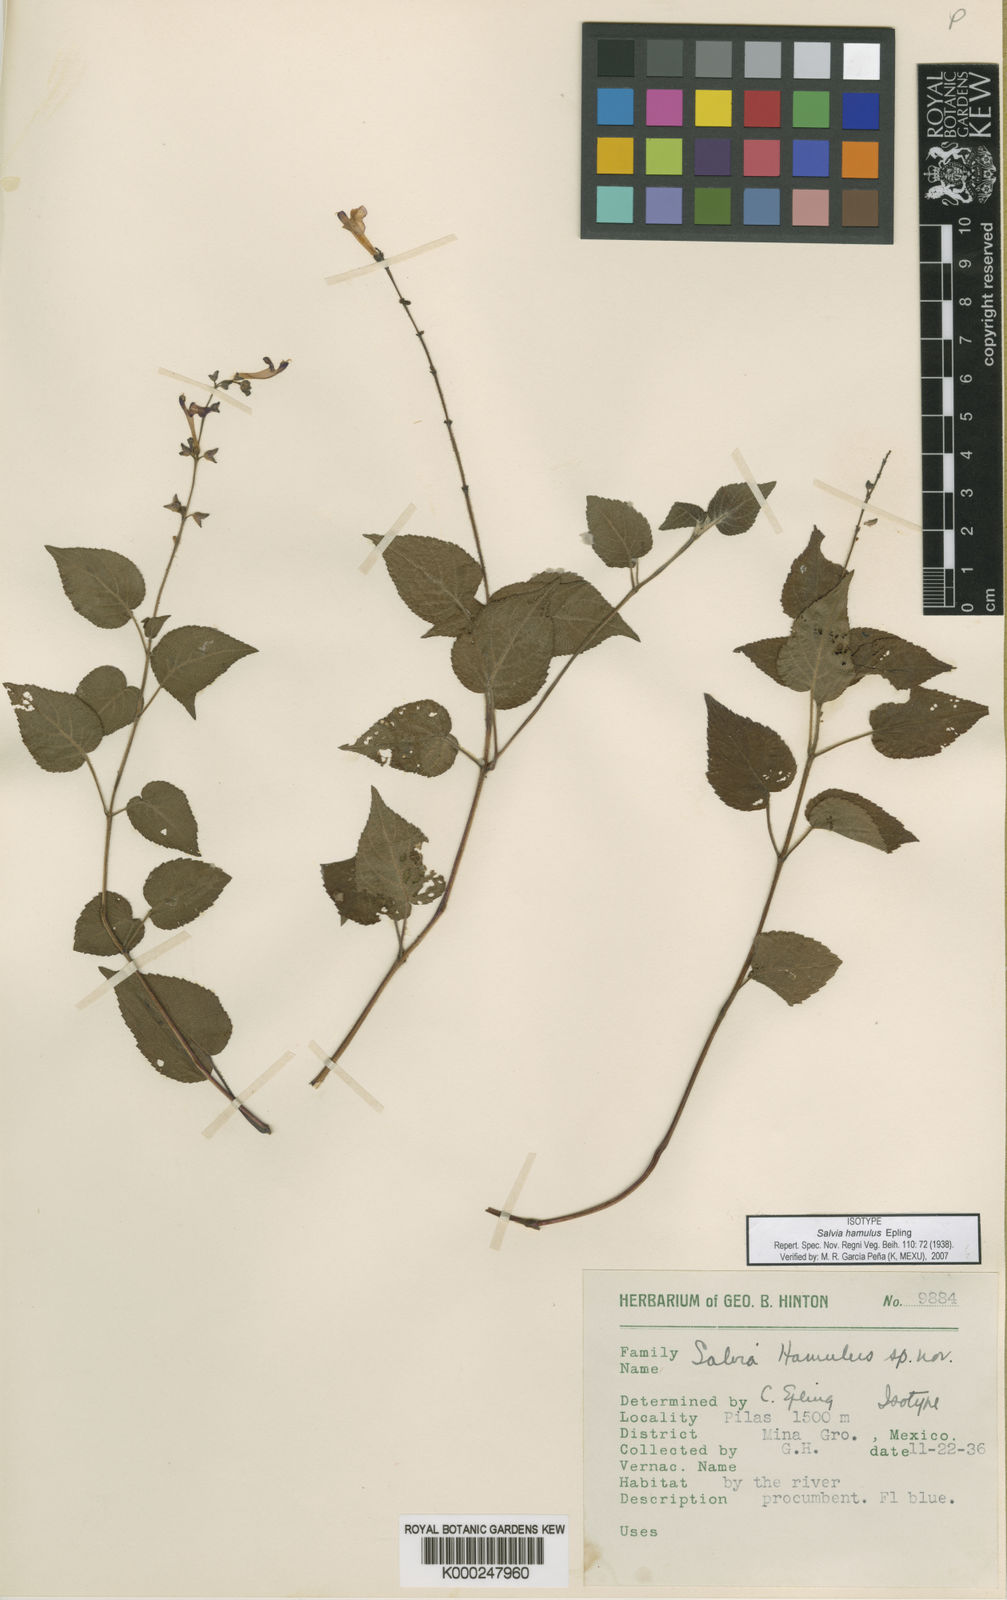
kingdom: Plantae
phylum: Tracheophyta
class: Magnoliopsida
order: Lamiales
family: Lamiaceae
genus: Salvia
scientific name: Salvia hamulus
